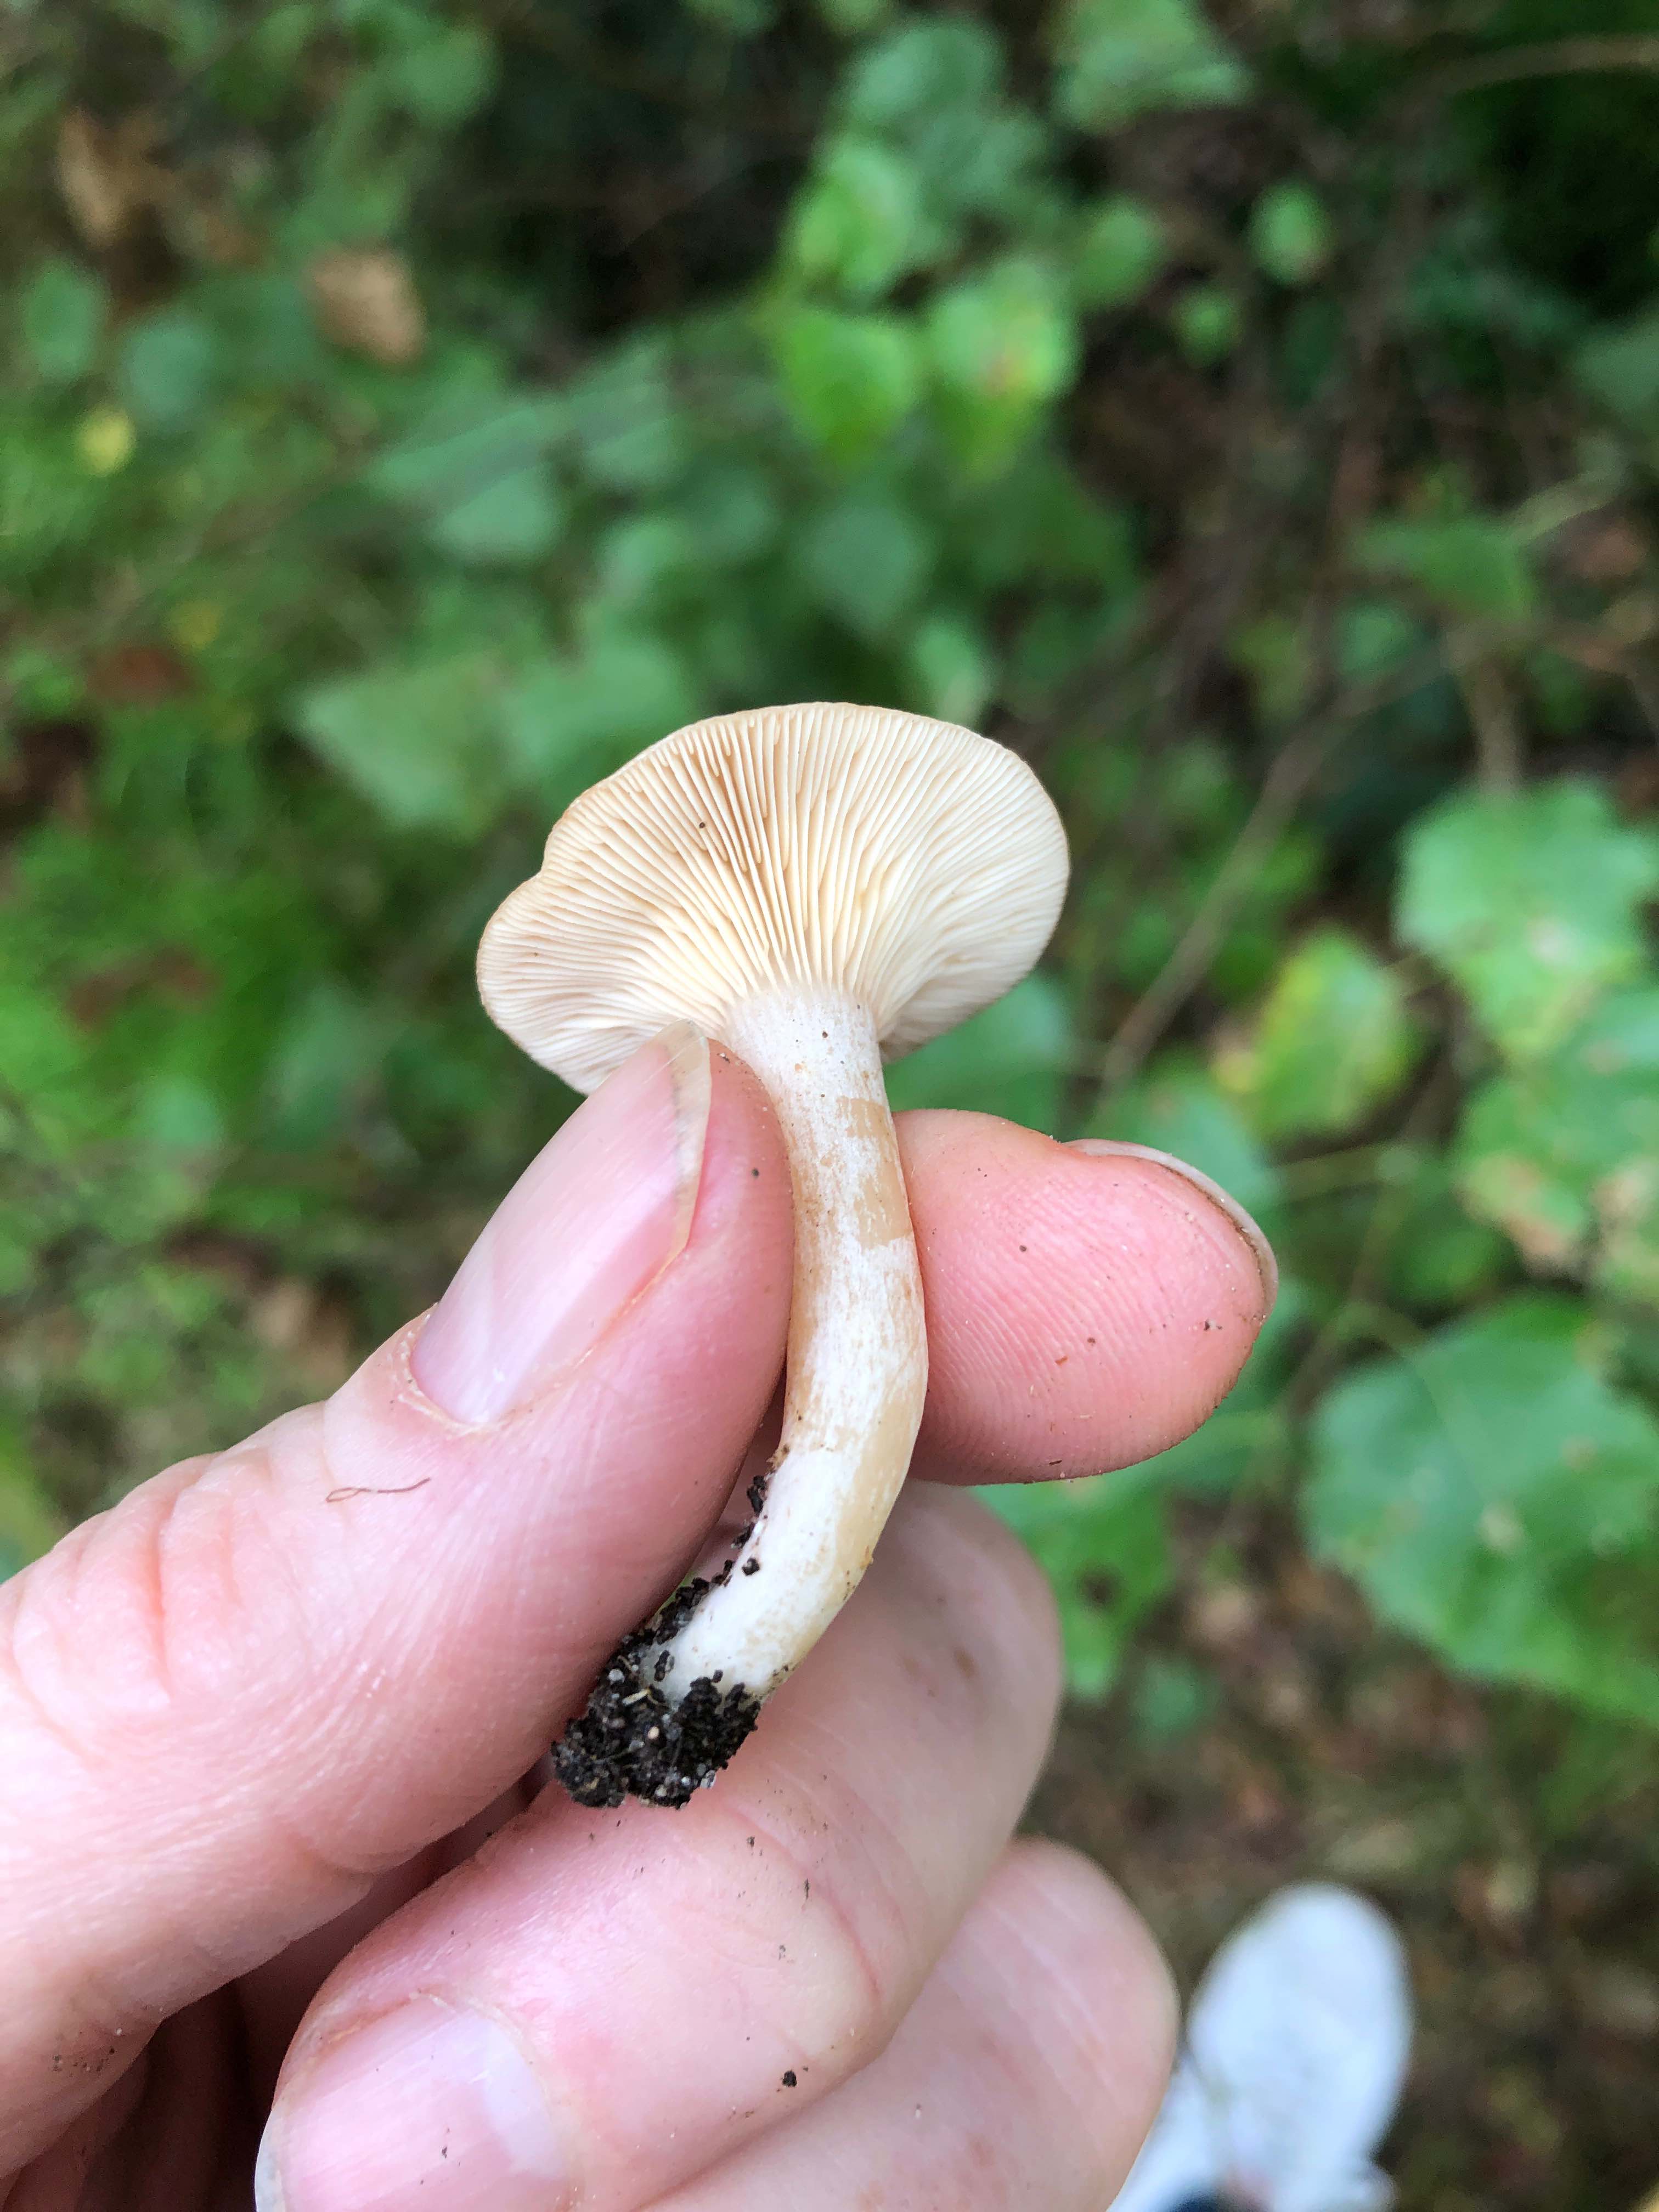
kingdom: Fungi
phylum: Basidiomycota
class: Agaricomycetes
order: Russulales
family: Russulaceae
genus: Lactarius
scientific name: Lactarius glyciosmus
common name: kokos-mælkehat
